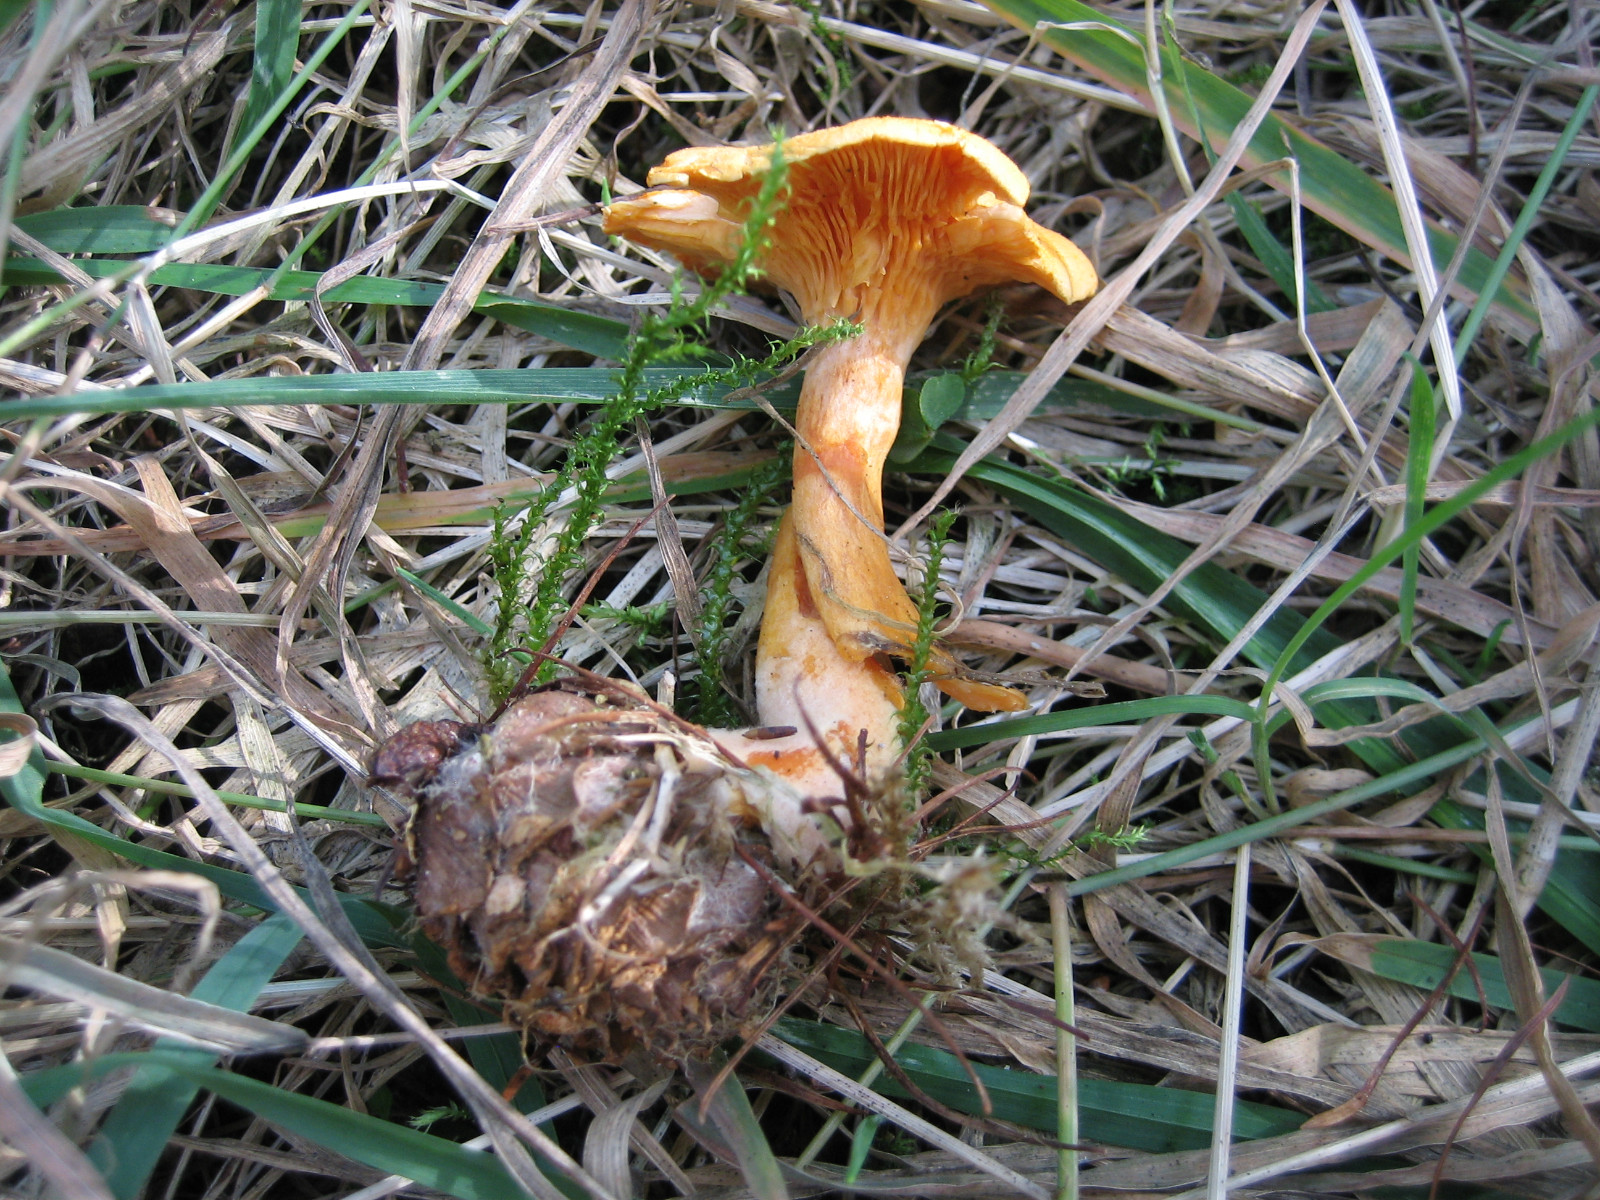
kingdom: Fungi
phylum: Basidiomycota
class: Agaricomycetes
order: Boletales
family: Hygrophoropsidaceae
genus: Hygrophoropsis
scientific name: Hygrophoropsis aurantiaca
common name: almindelig orangekantarel
